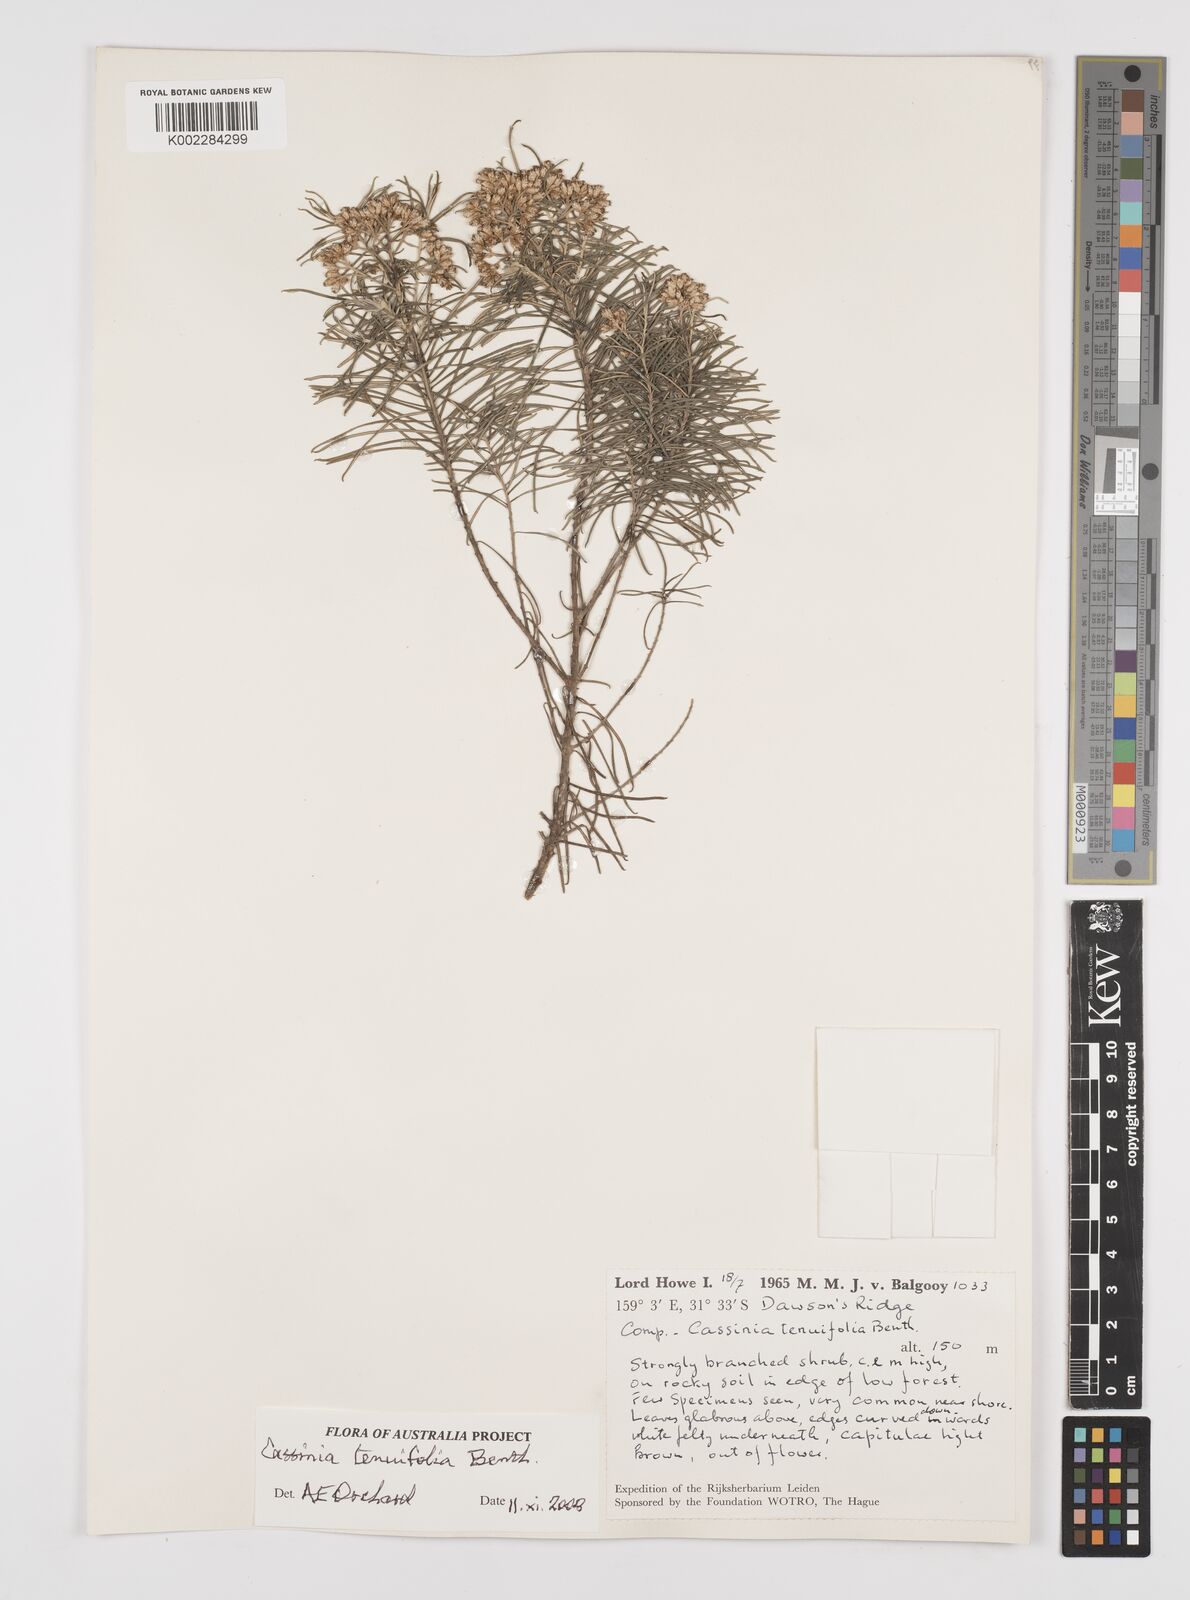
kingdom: Plantae
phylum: Tracheophyta
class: Magnoliopsida
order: Asterales
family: Asteraceae
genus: Cassinia
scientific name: Cassinia tenuifolia
